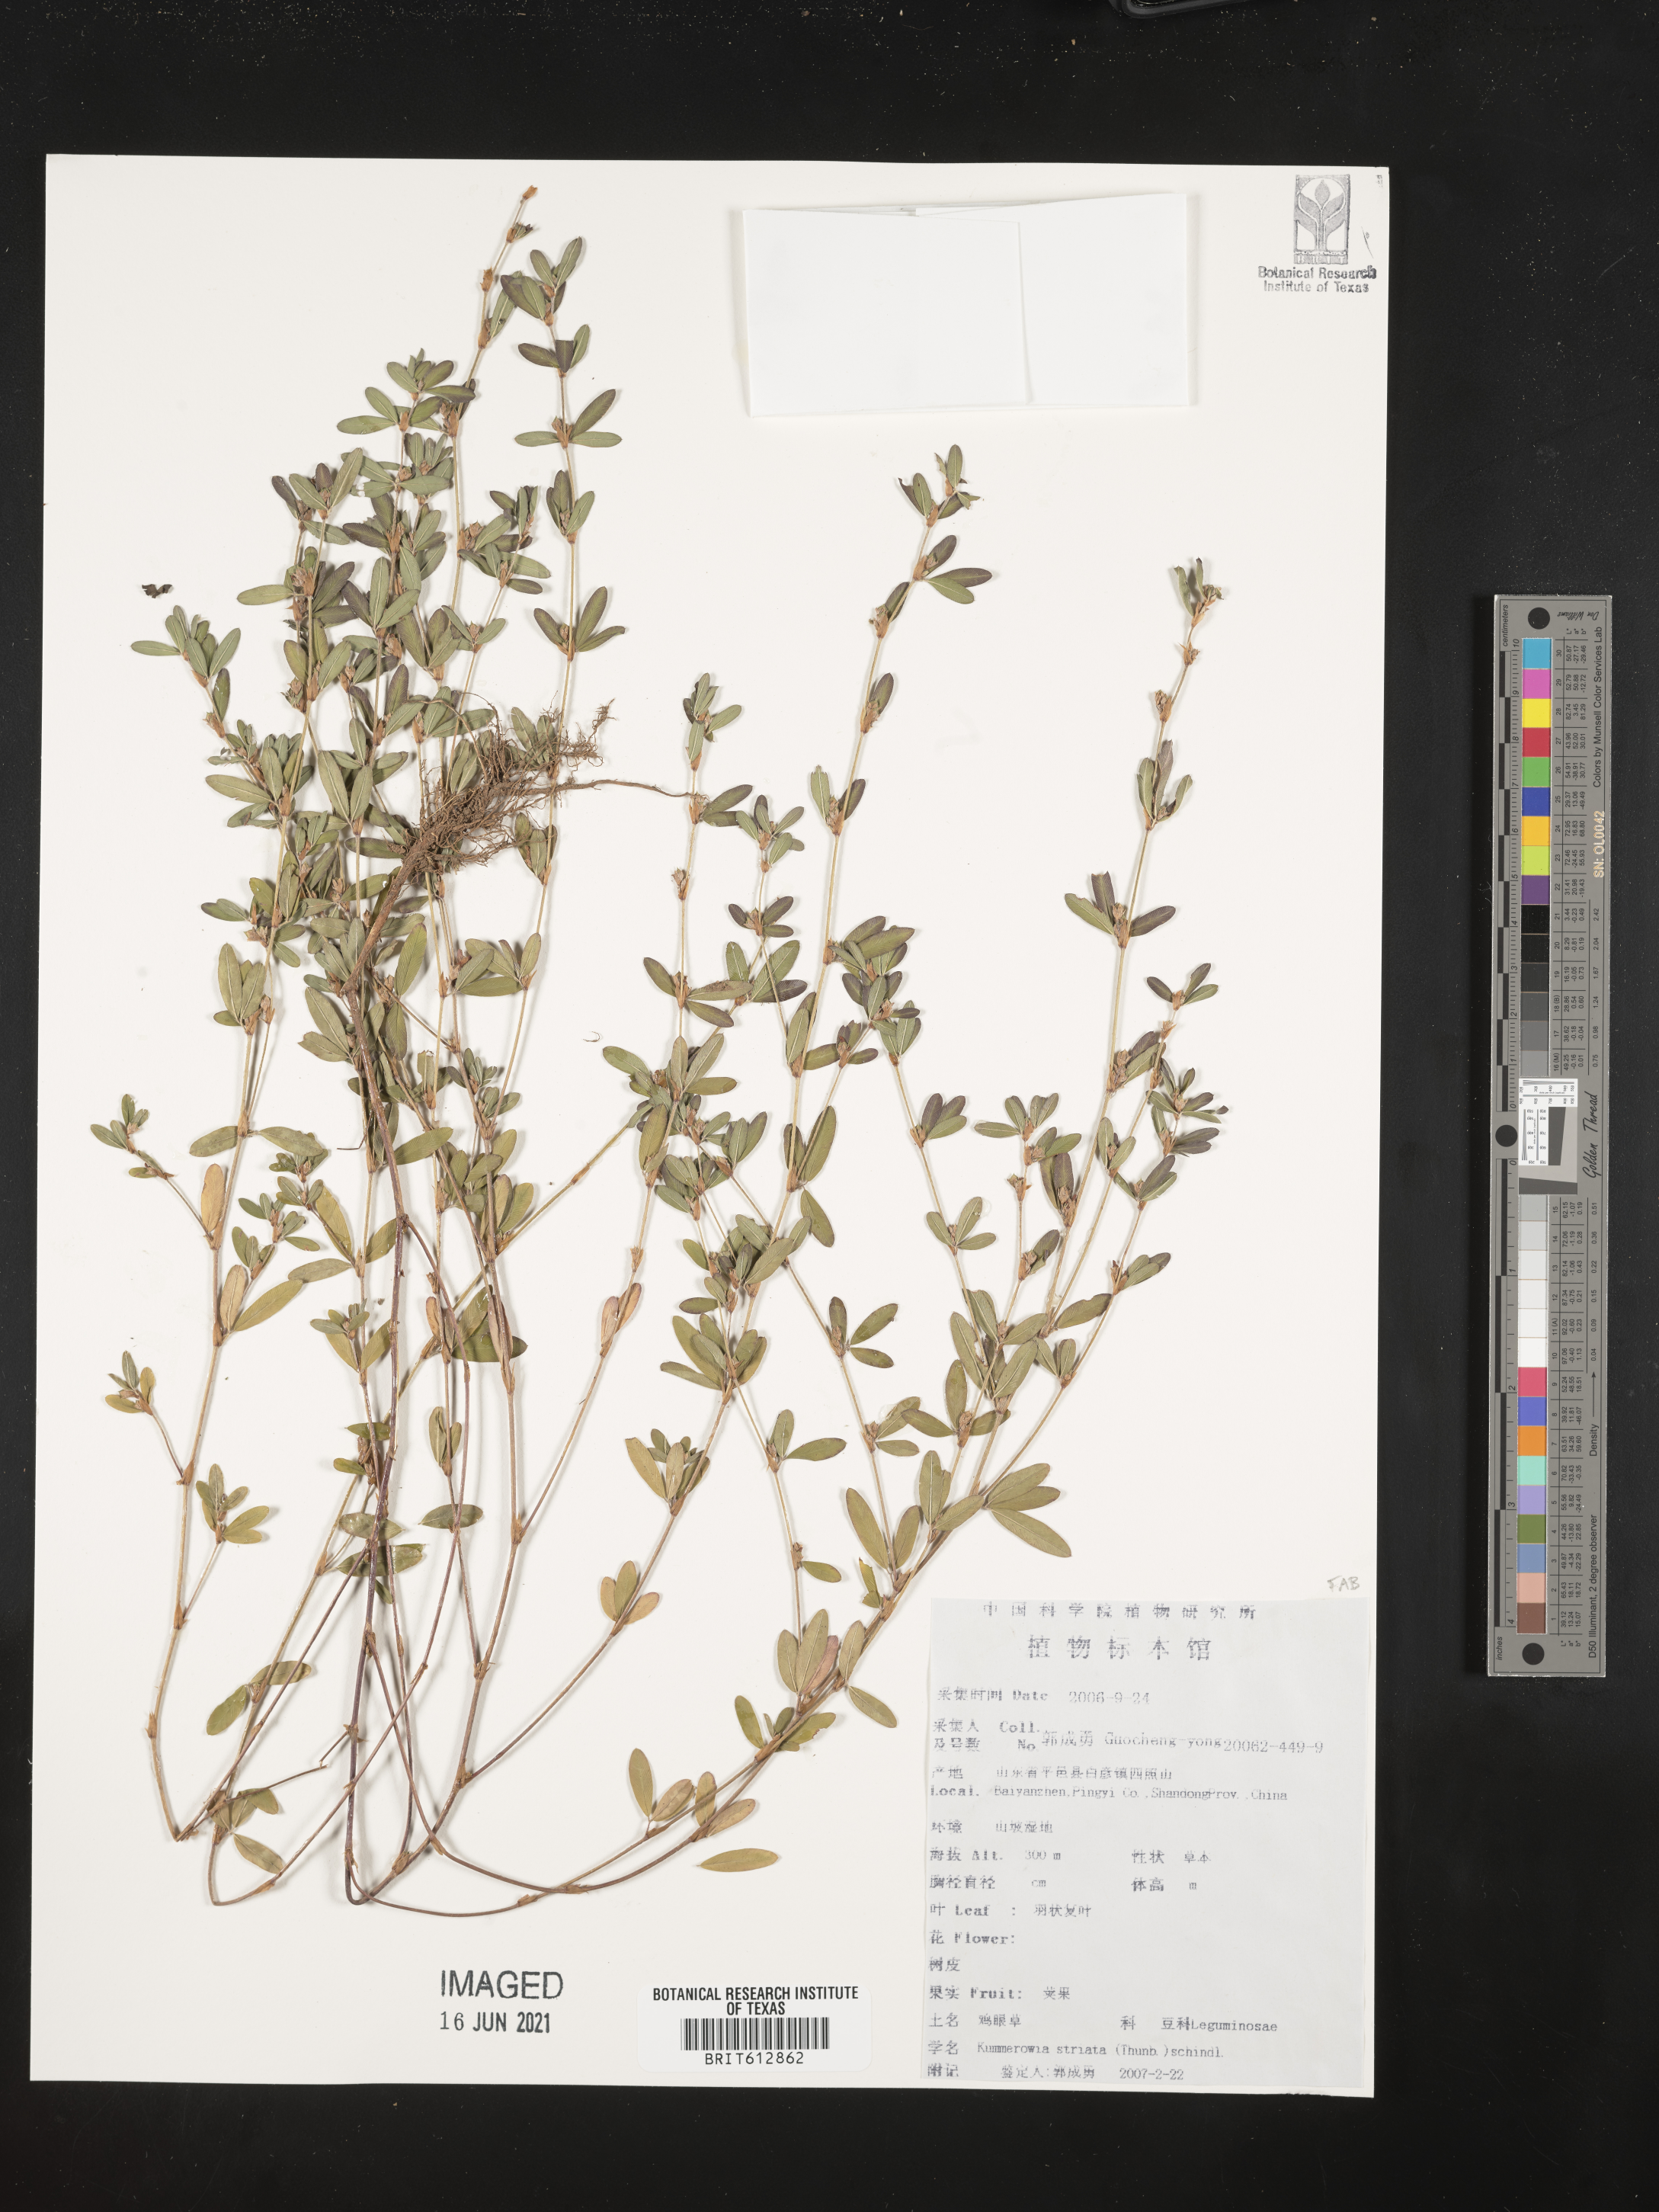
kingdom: Plantae
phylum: Tracheophyta
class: Magnoliopsida
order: Fabales
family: Fabaceae
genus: Kummerowia
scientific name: Kummerowia striata
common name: Japanese clover
